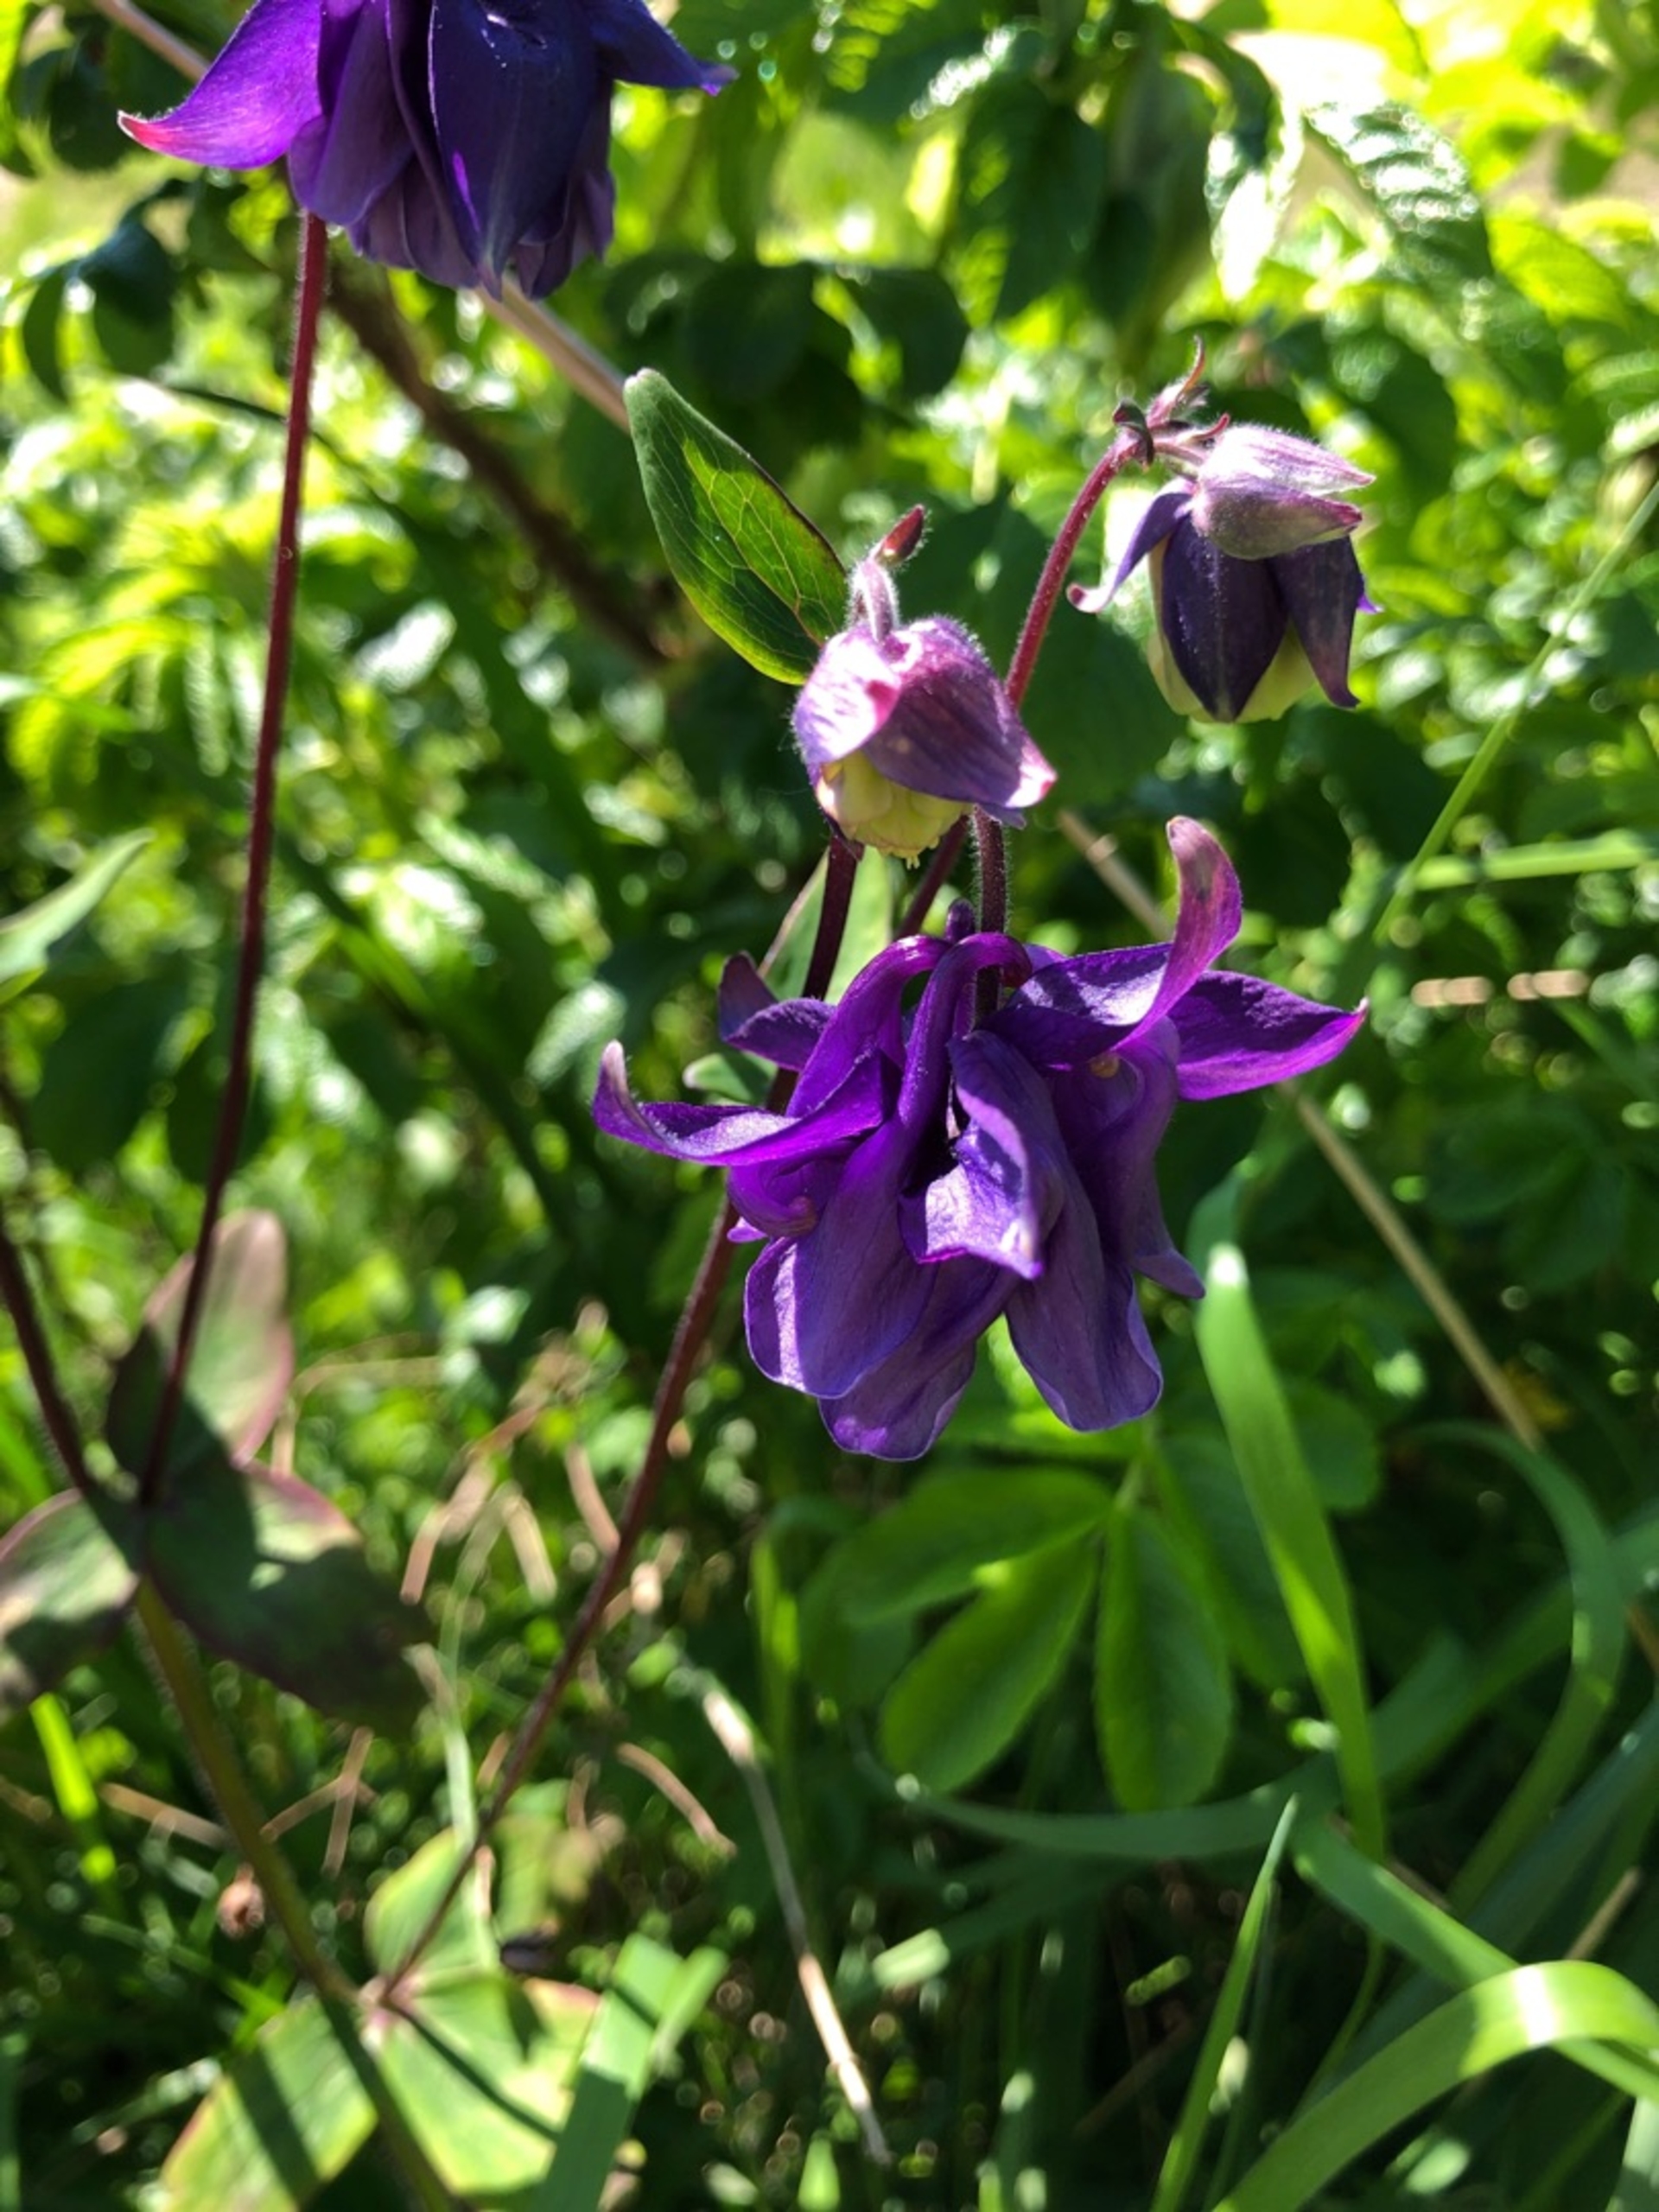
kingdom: Plantae
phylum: Tracheophyta
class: Magnoliopsida
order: Ranunculales
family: Ranunculaceae
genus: Aquilegia
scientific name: Aquilegia vulgaris
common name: Akeleje
